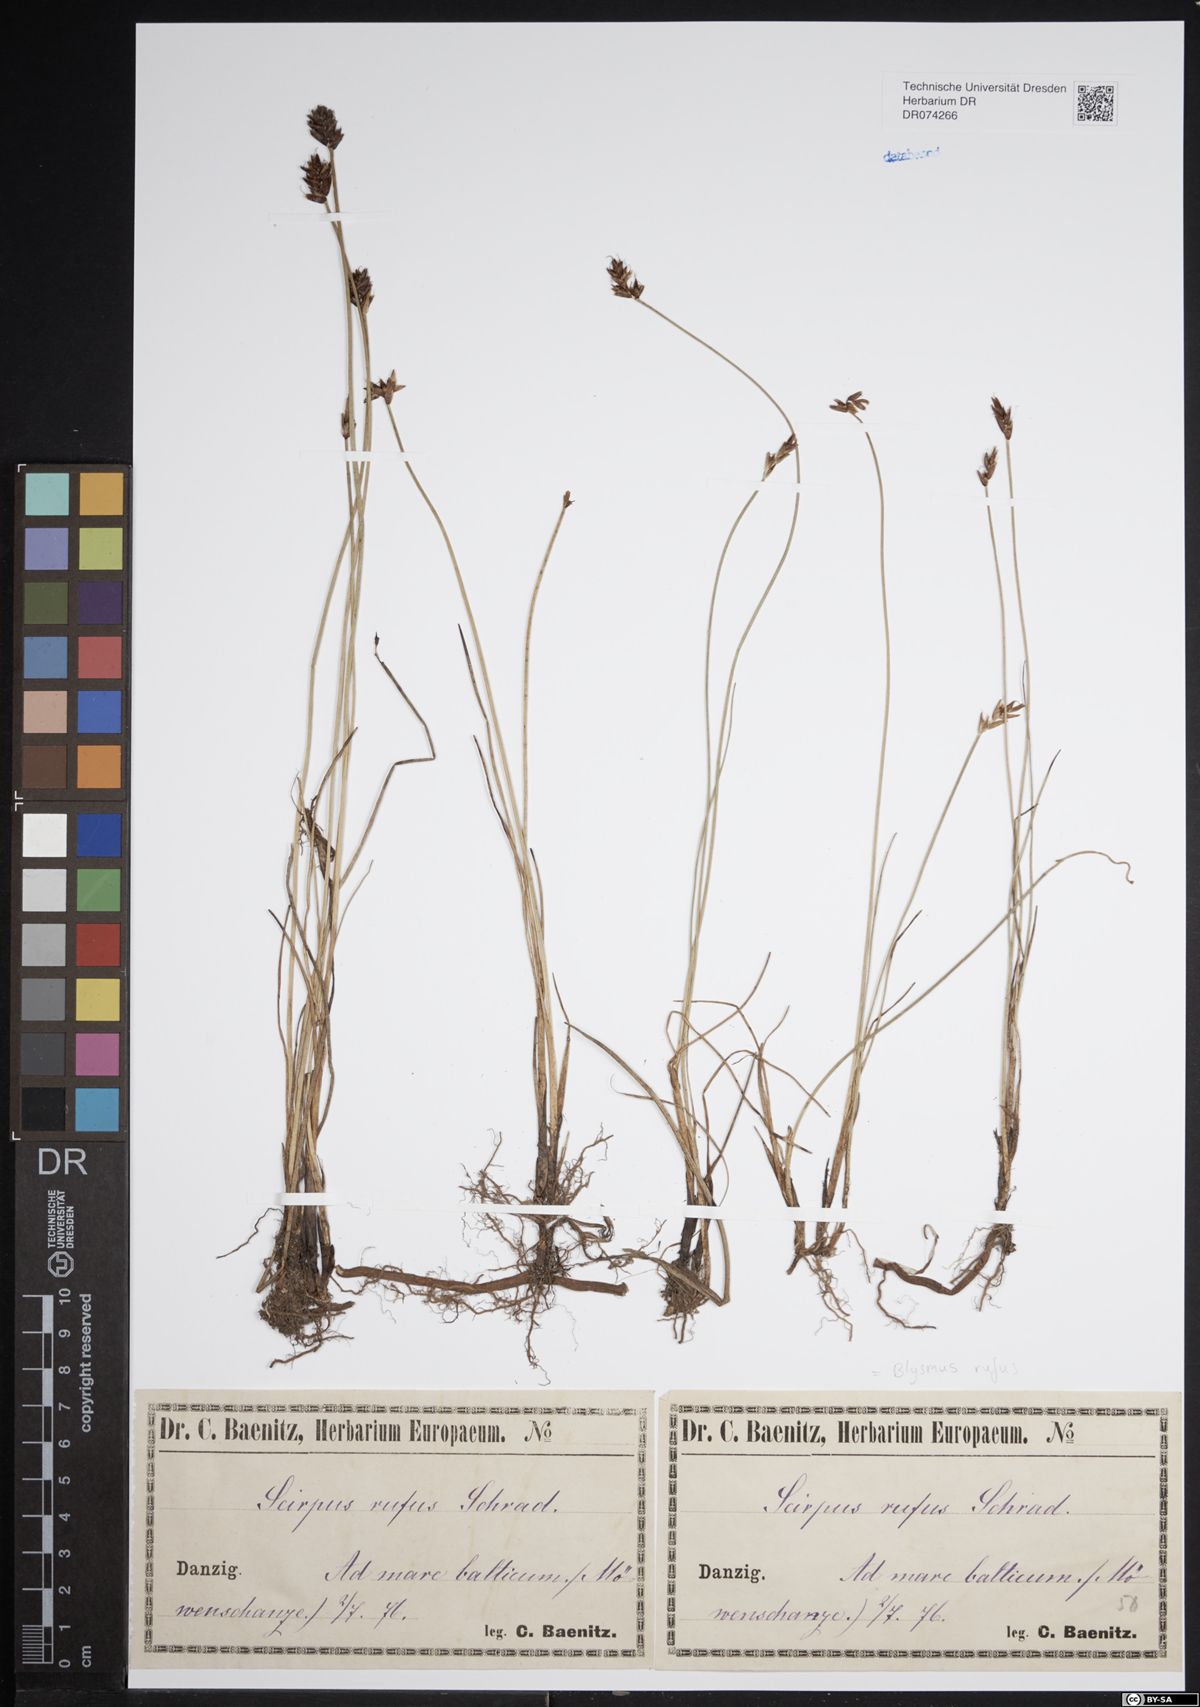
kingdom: Plantae
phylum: Tracheophyta
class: Liliopsida
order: Poales
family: Cyperaceae
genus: Blysmus
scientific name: Blysmus rufus
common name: Saltmarsh flat-sedge
